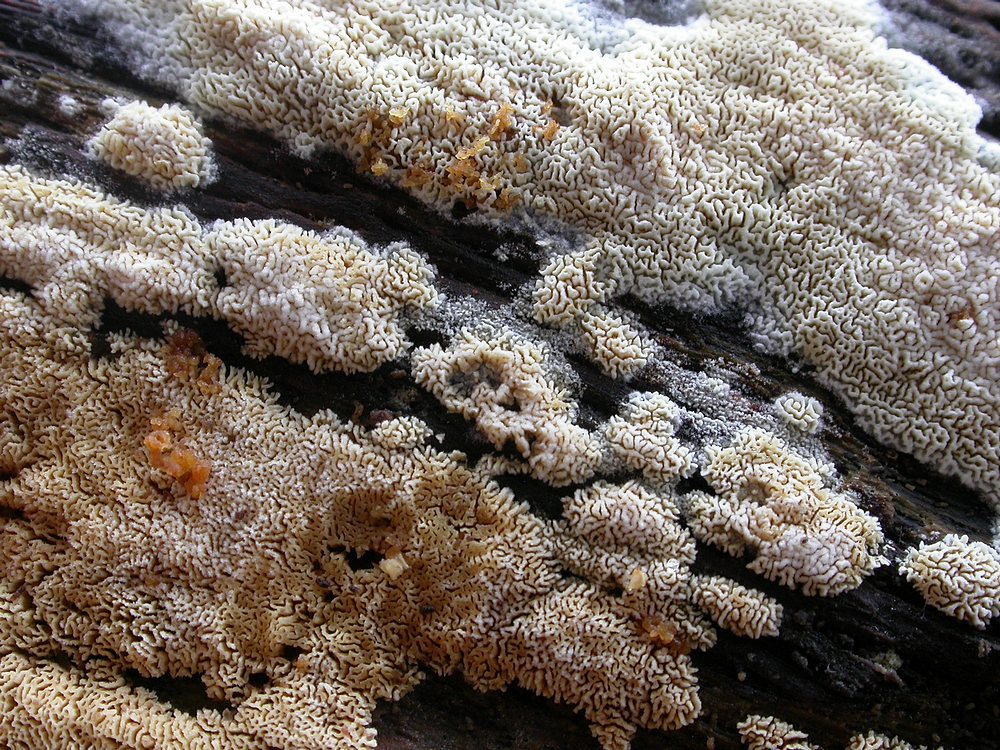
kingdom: Fungi
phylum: Basidiomycota
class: Agaricomycetes
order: Hymenochaetales
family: Schizoporaceae
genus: Xylodon
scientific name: Xylodon subtropicus
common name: labyrint-tandsvamp
